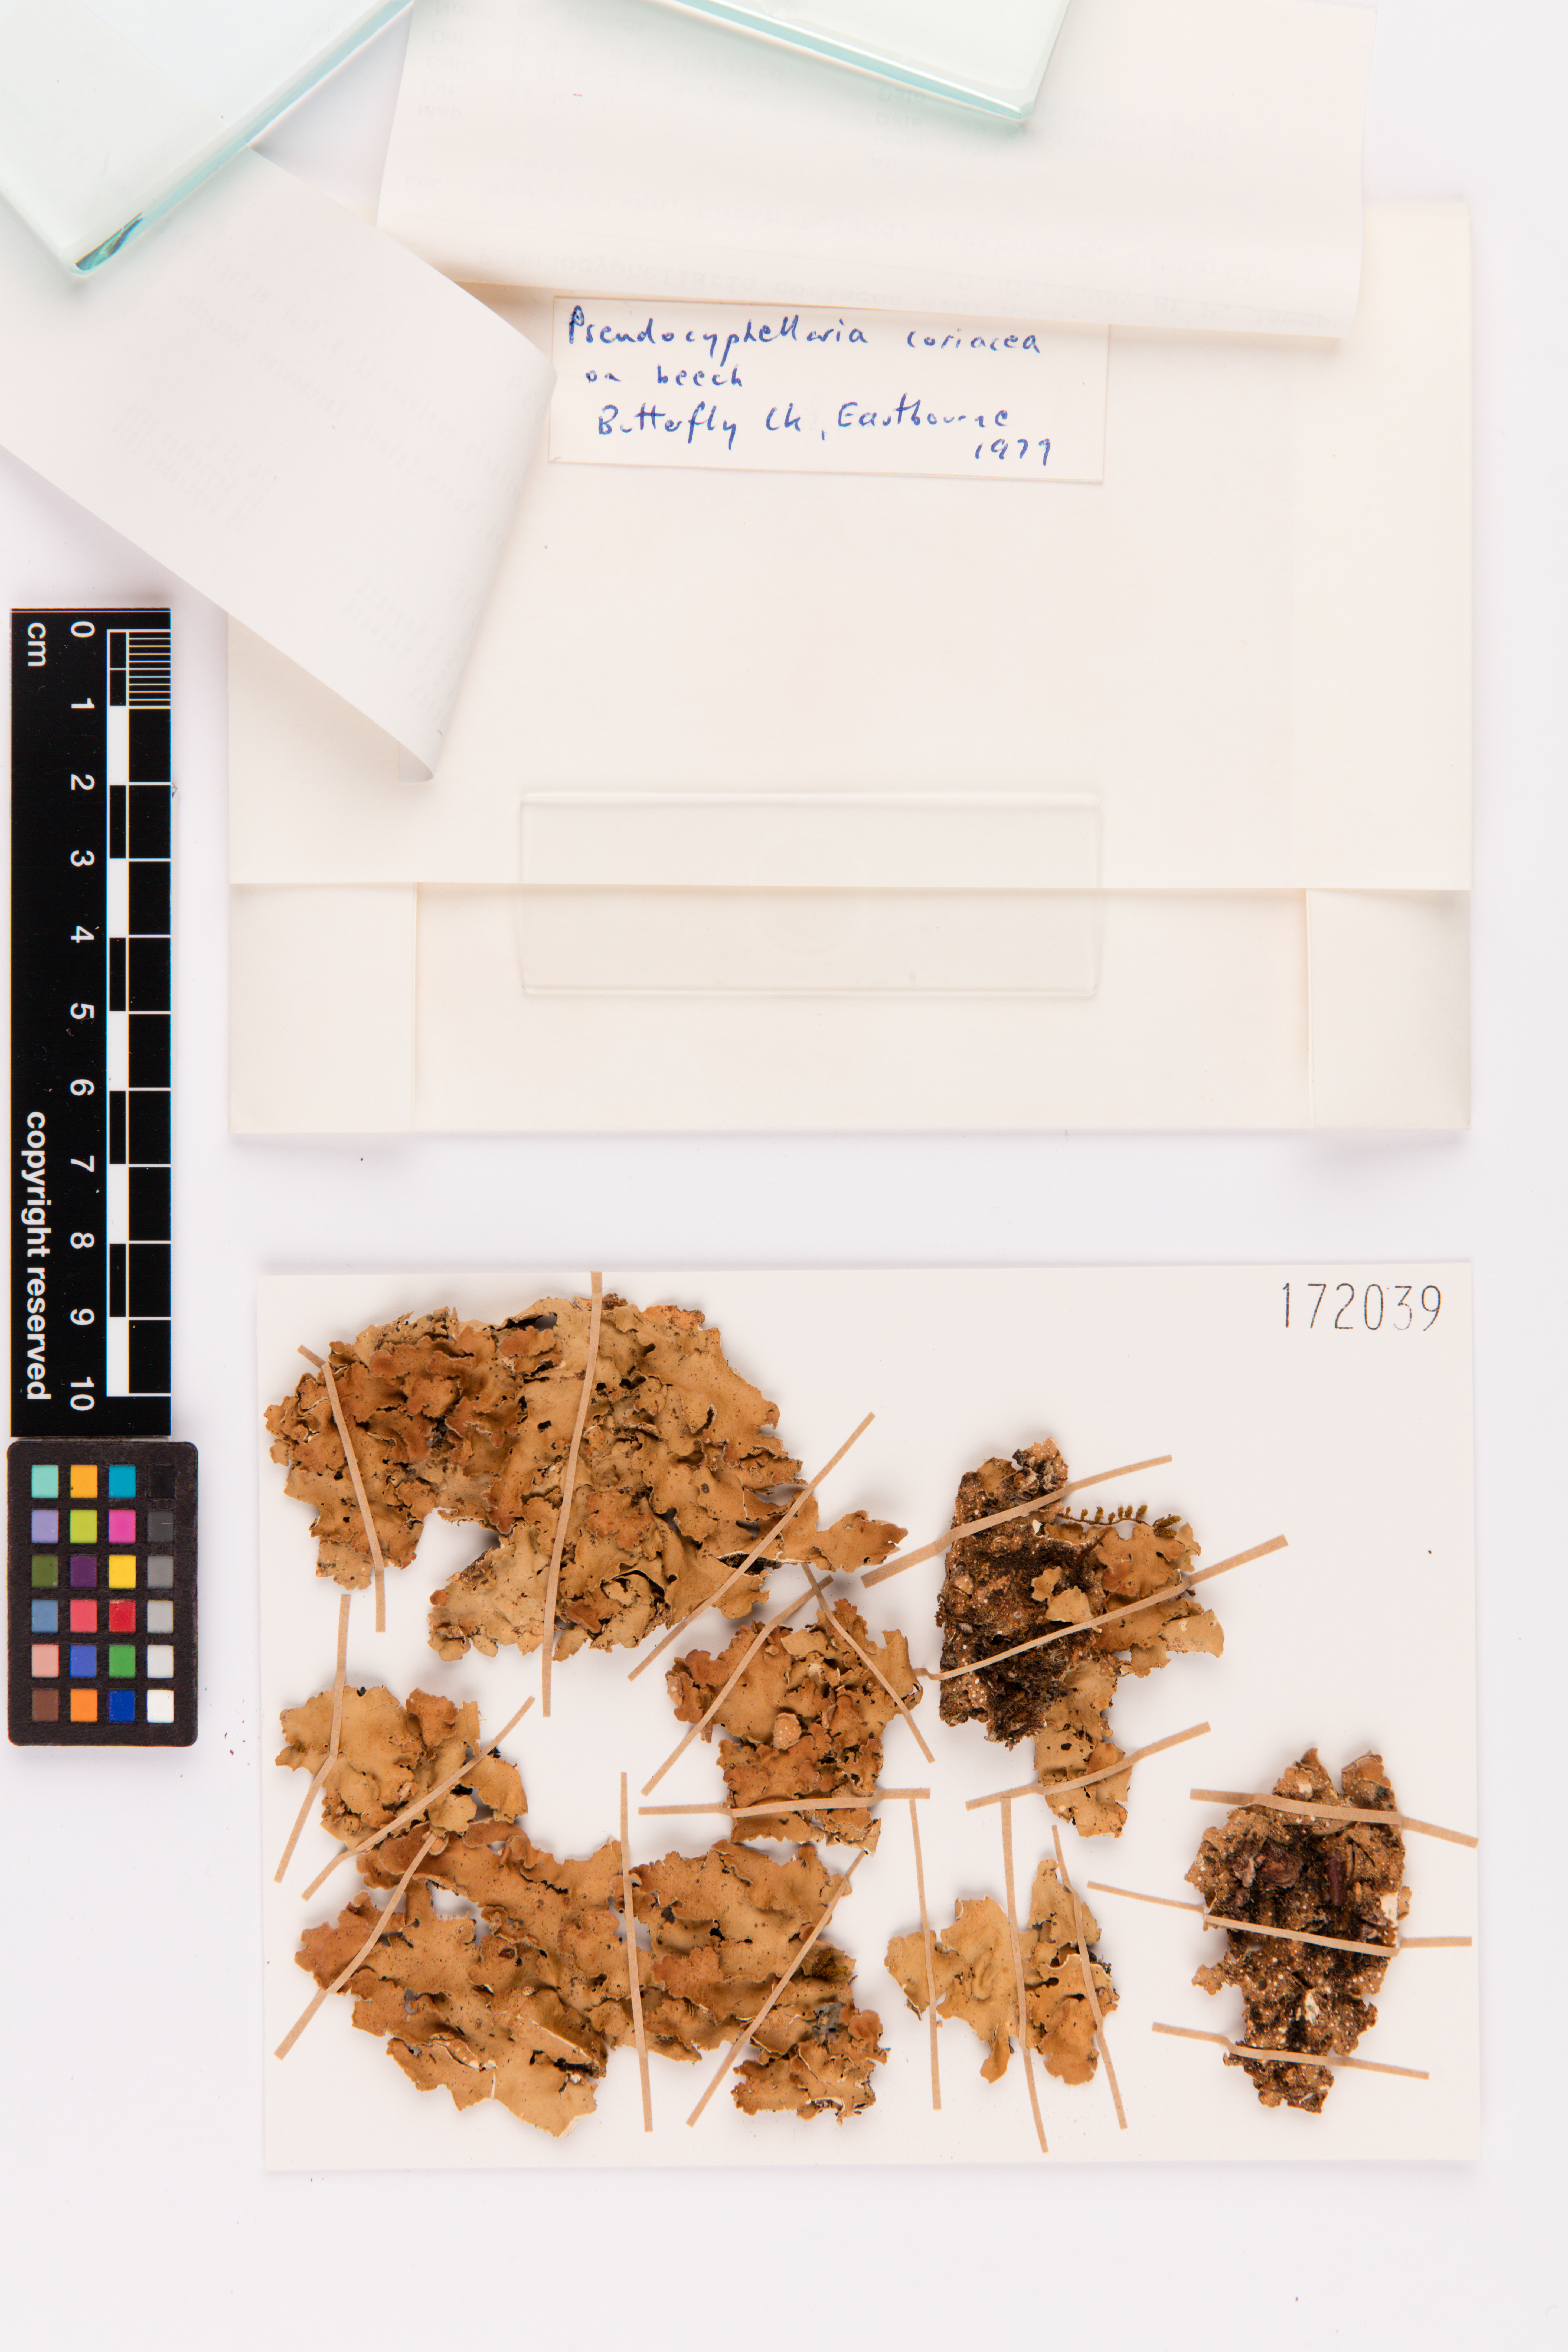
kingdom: Fungi
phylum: Ascomycota
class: Lecanoromycetes
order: Peltigerales
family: Lobariaceae
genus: Pseudocyphellaria
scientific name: Pseudocyphellaria coriacea
